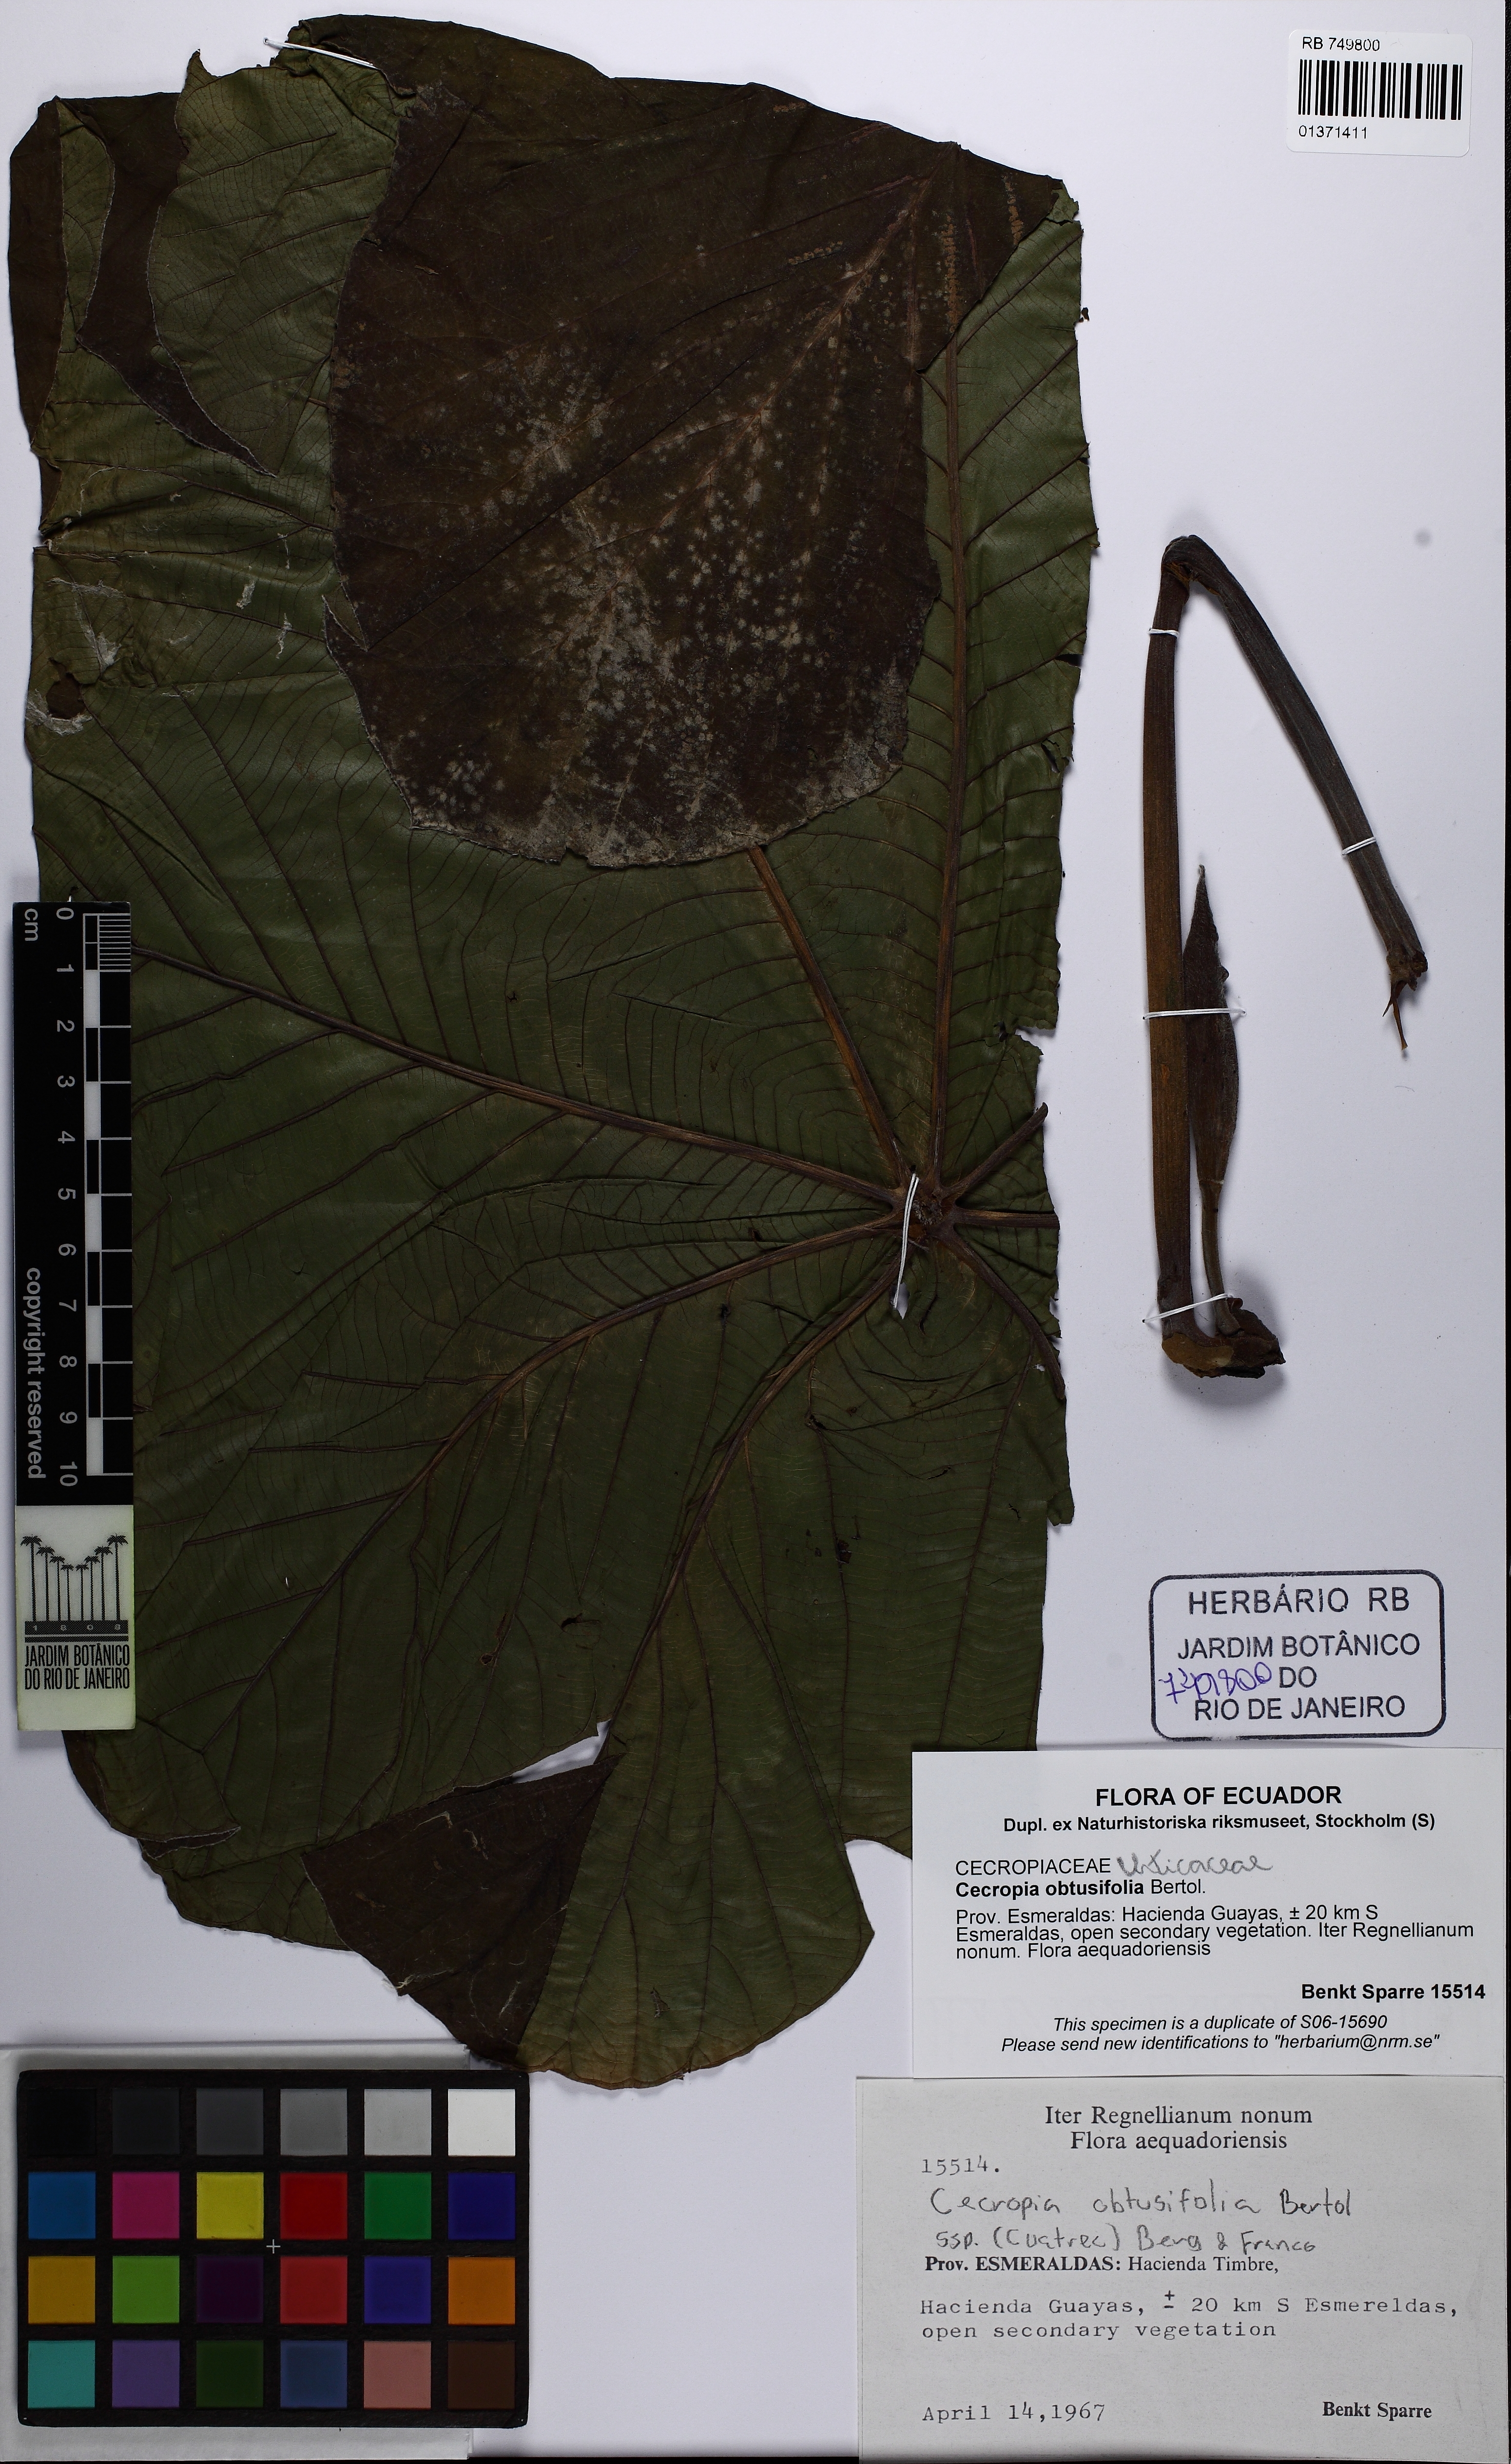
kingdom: Plantae
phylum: Tracheophyta
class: Magnoliopsida
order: Rosales
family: Urticaceae
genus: Cecropia
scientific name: Cecropia obtusifolia
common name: Trumpet tree
